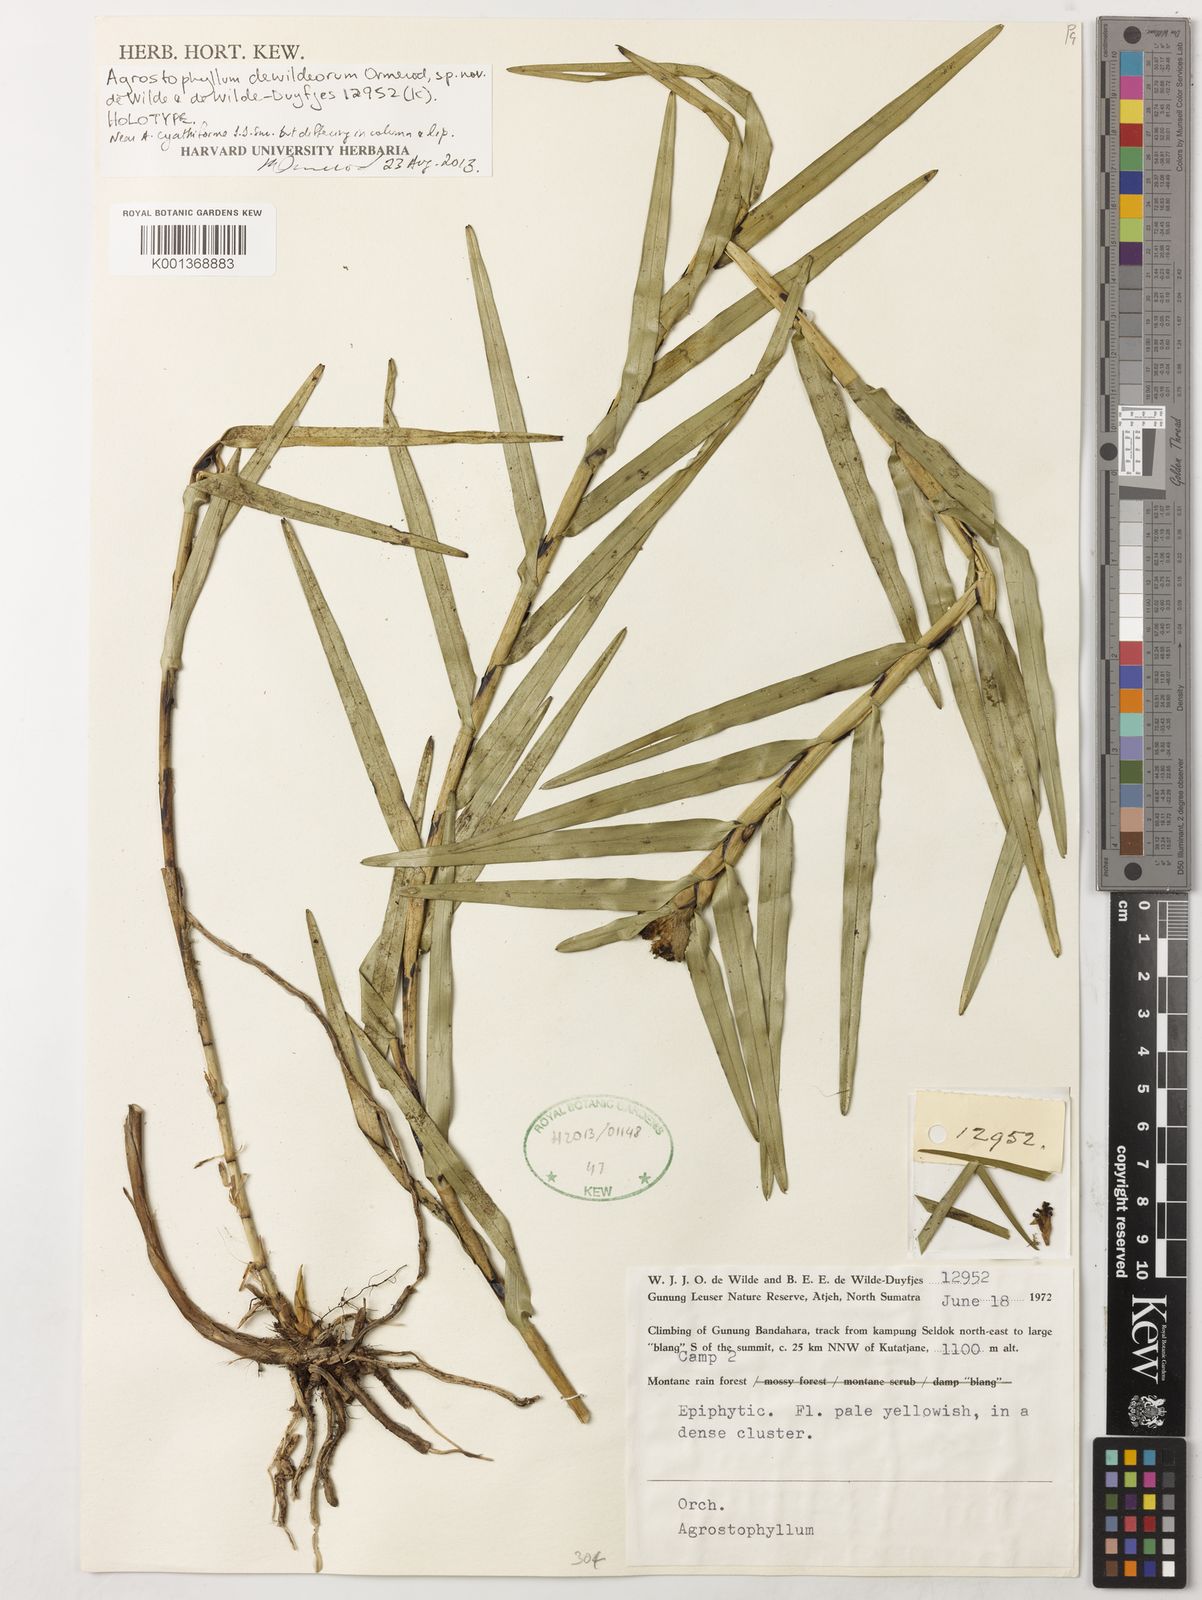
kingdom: Plantae
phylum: Tracheophyta
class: Liliopsida
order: Asparagales
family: Orchidaceae
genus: Agrostophyllum
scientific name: Agrostophyllum dewildeorum
